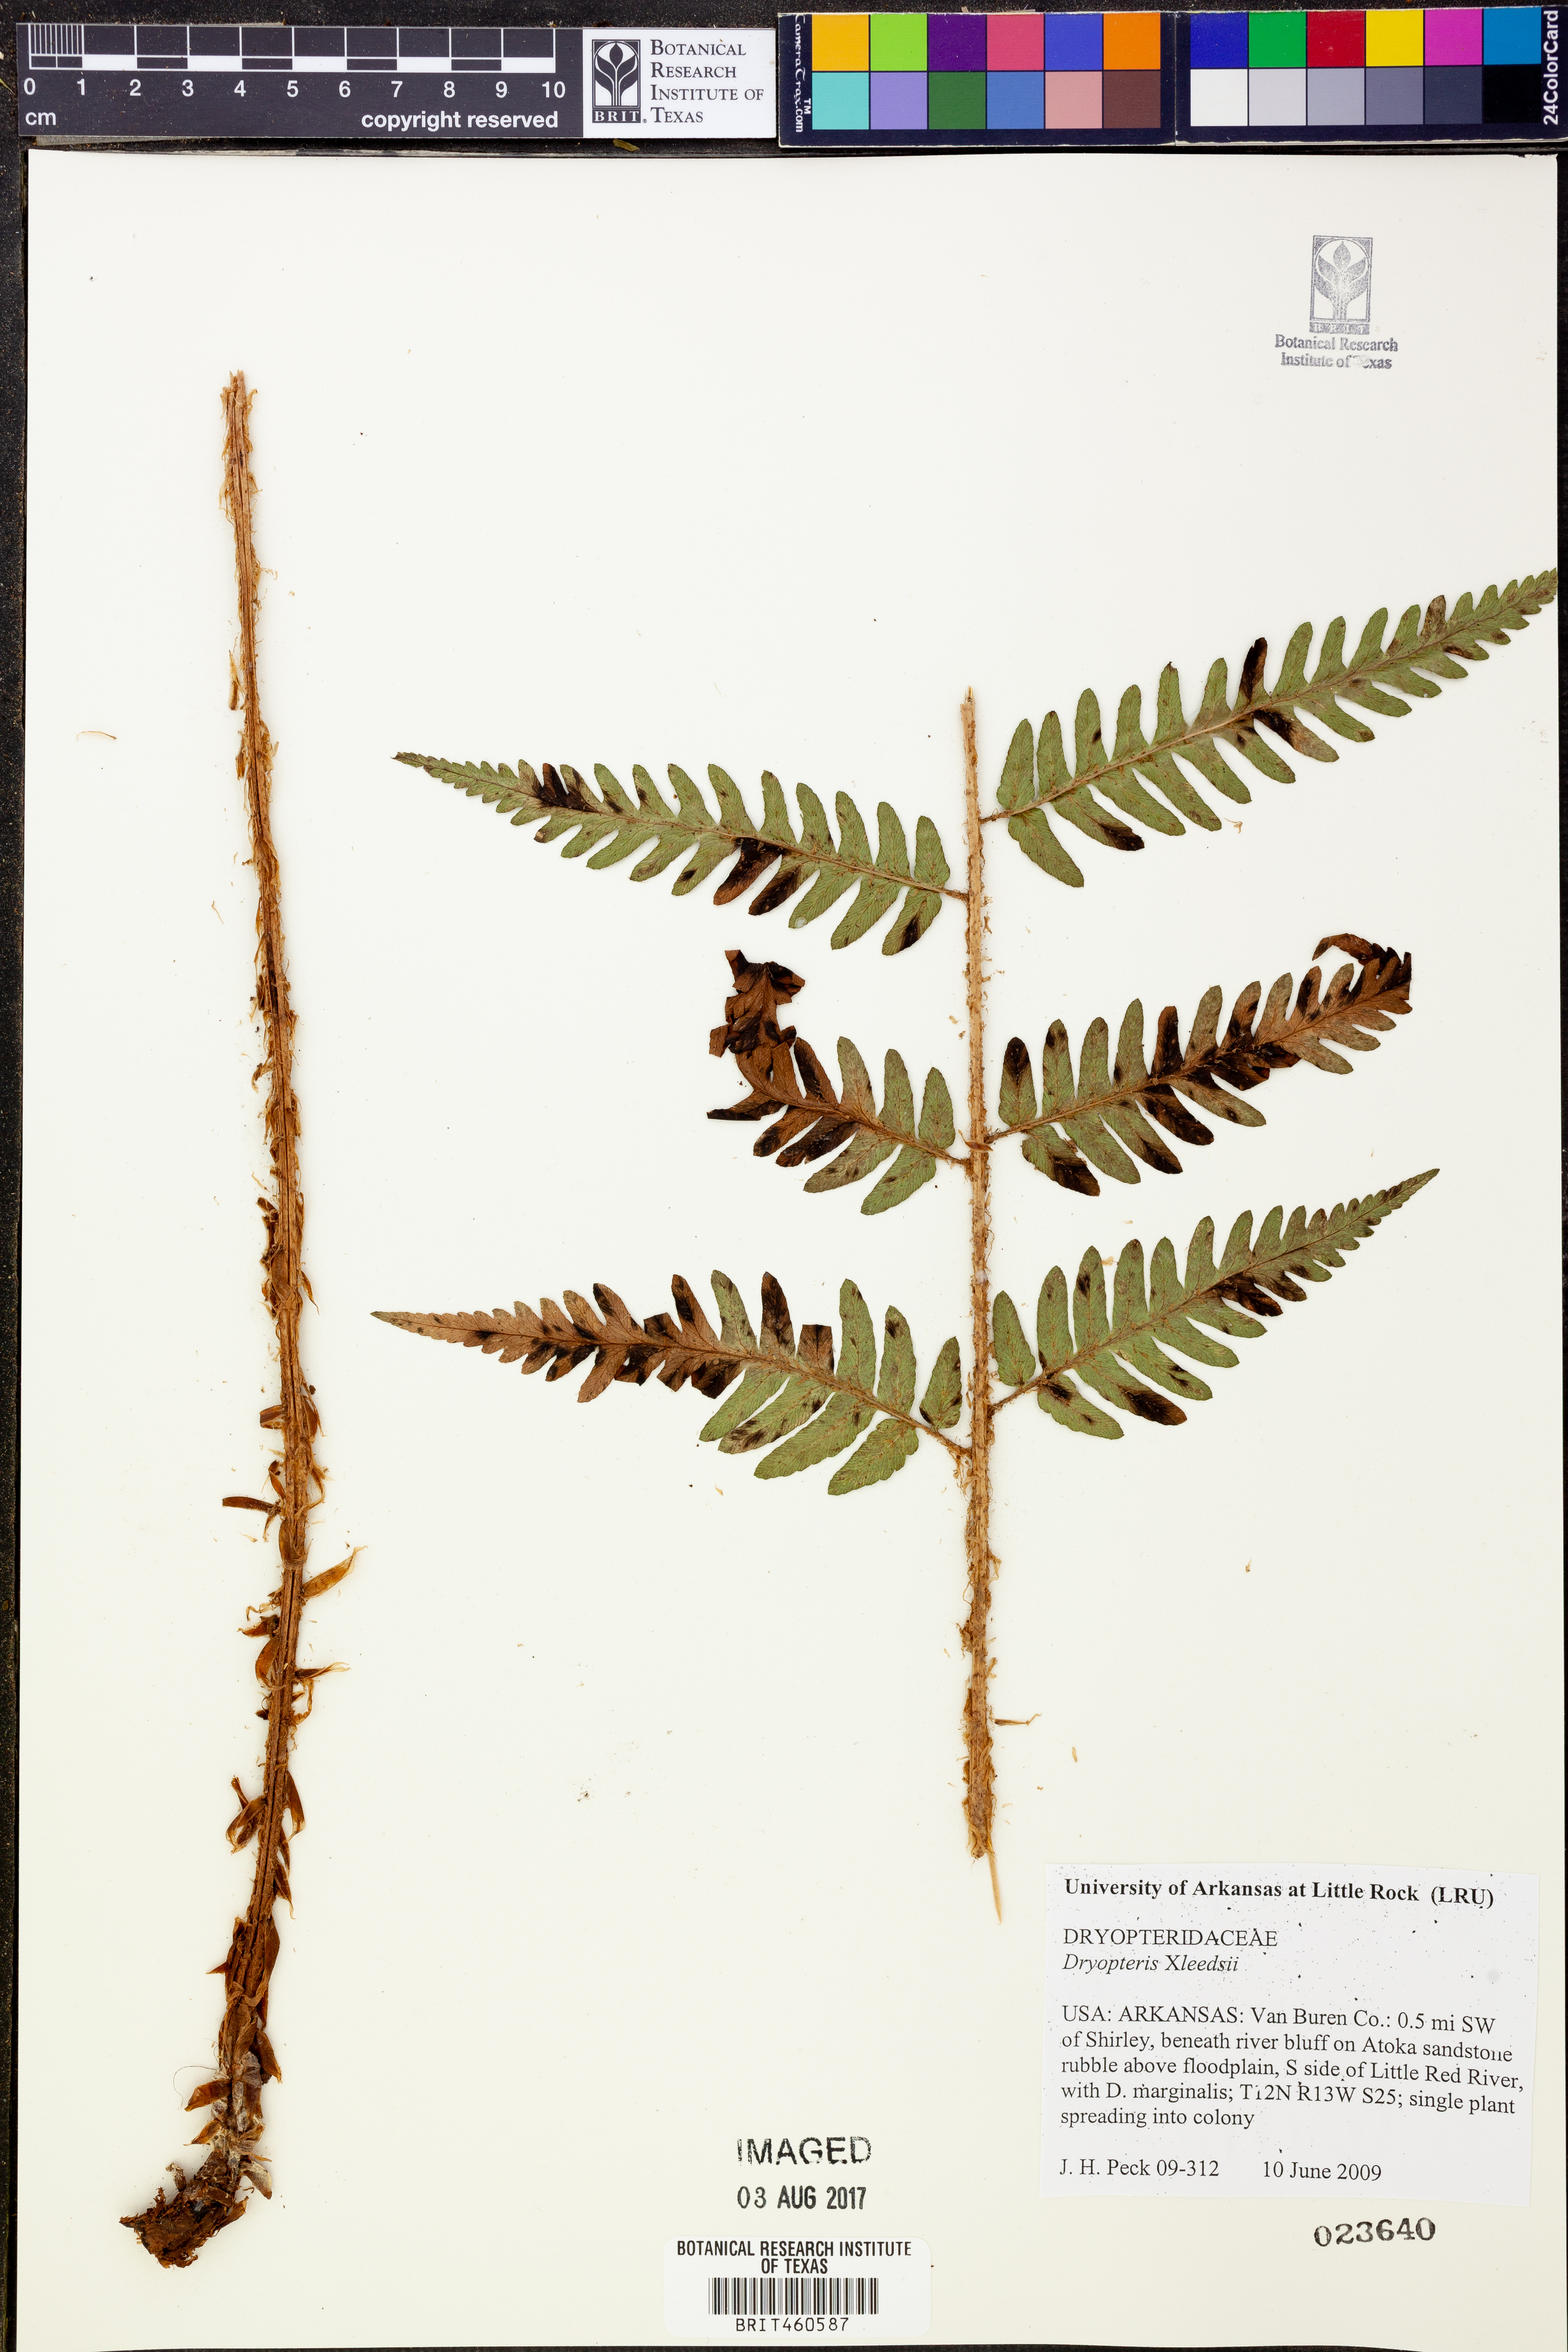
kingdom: Plantae
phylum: Tracheophyta
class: Polypodiopsida
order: Polypodiales
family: Dryopteridaceae
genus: Dryopteris
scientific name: Dryopteris
